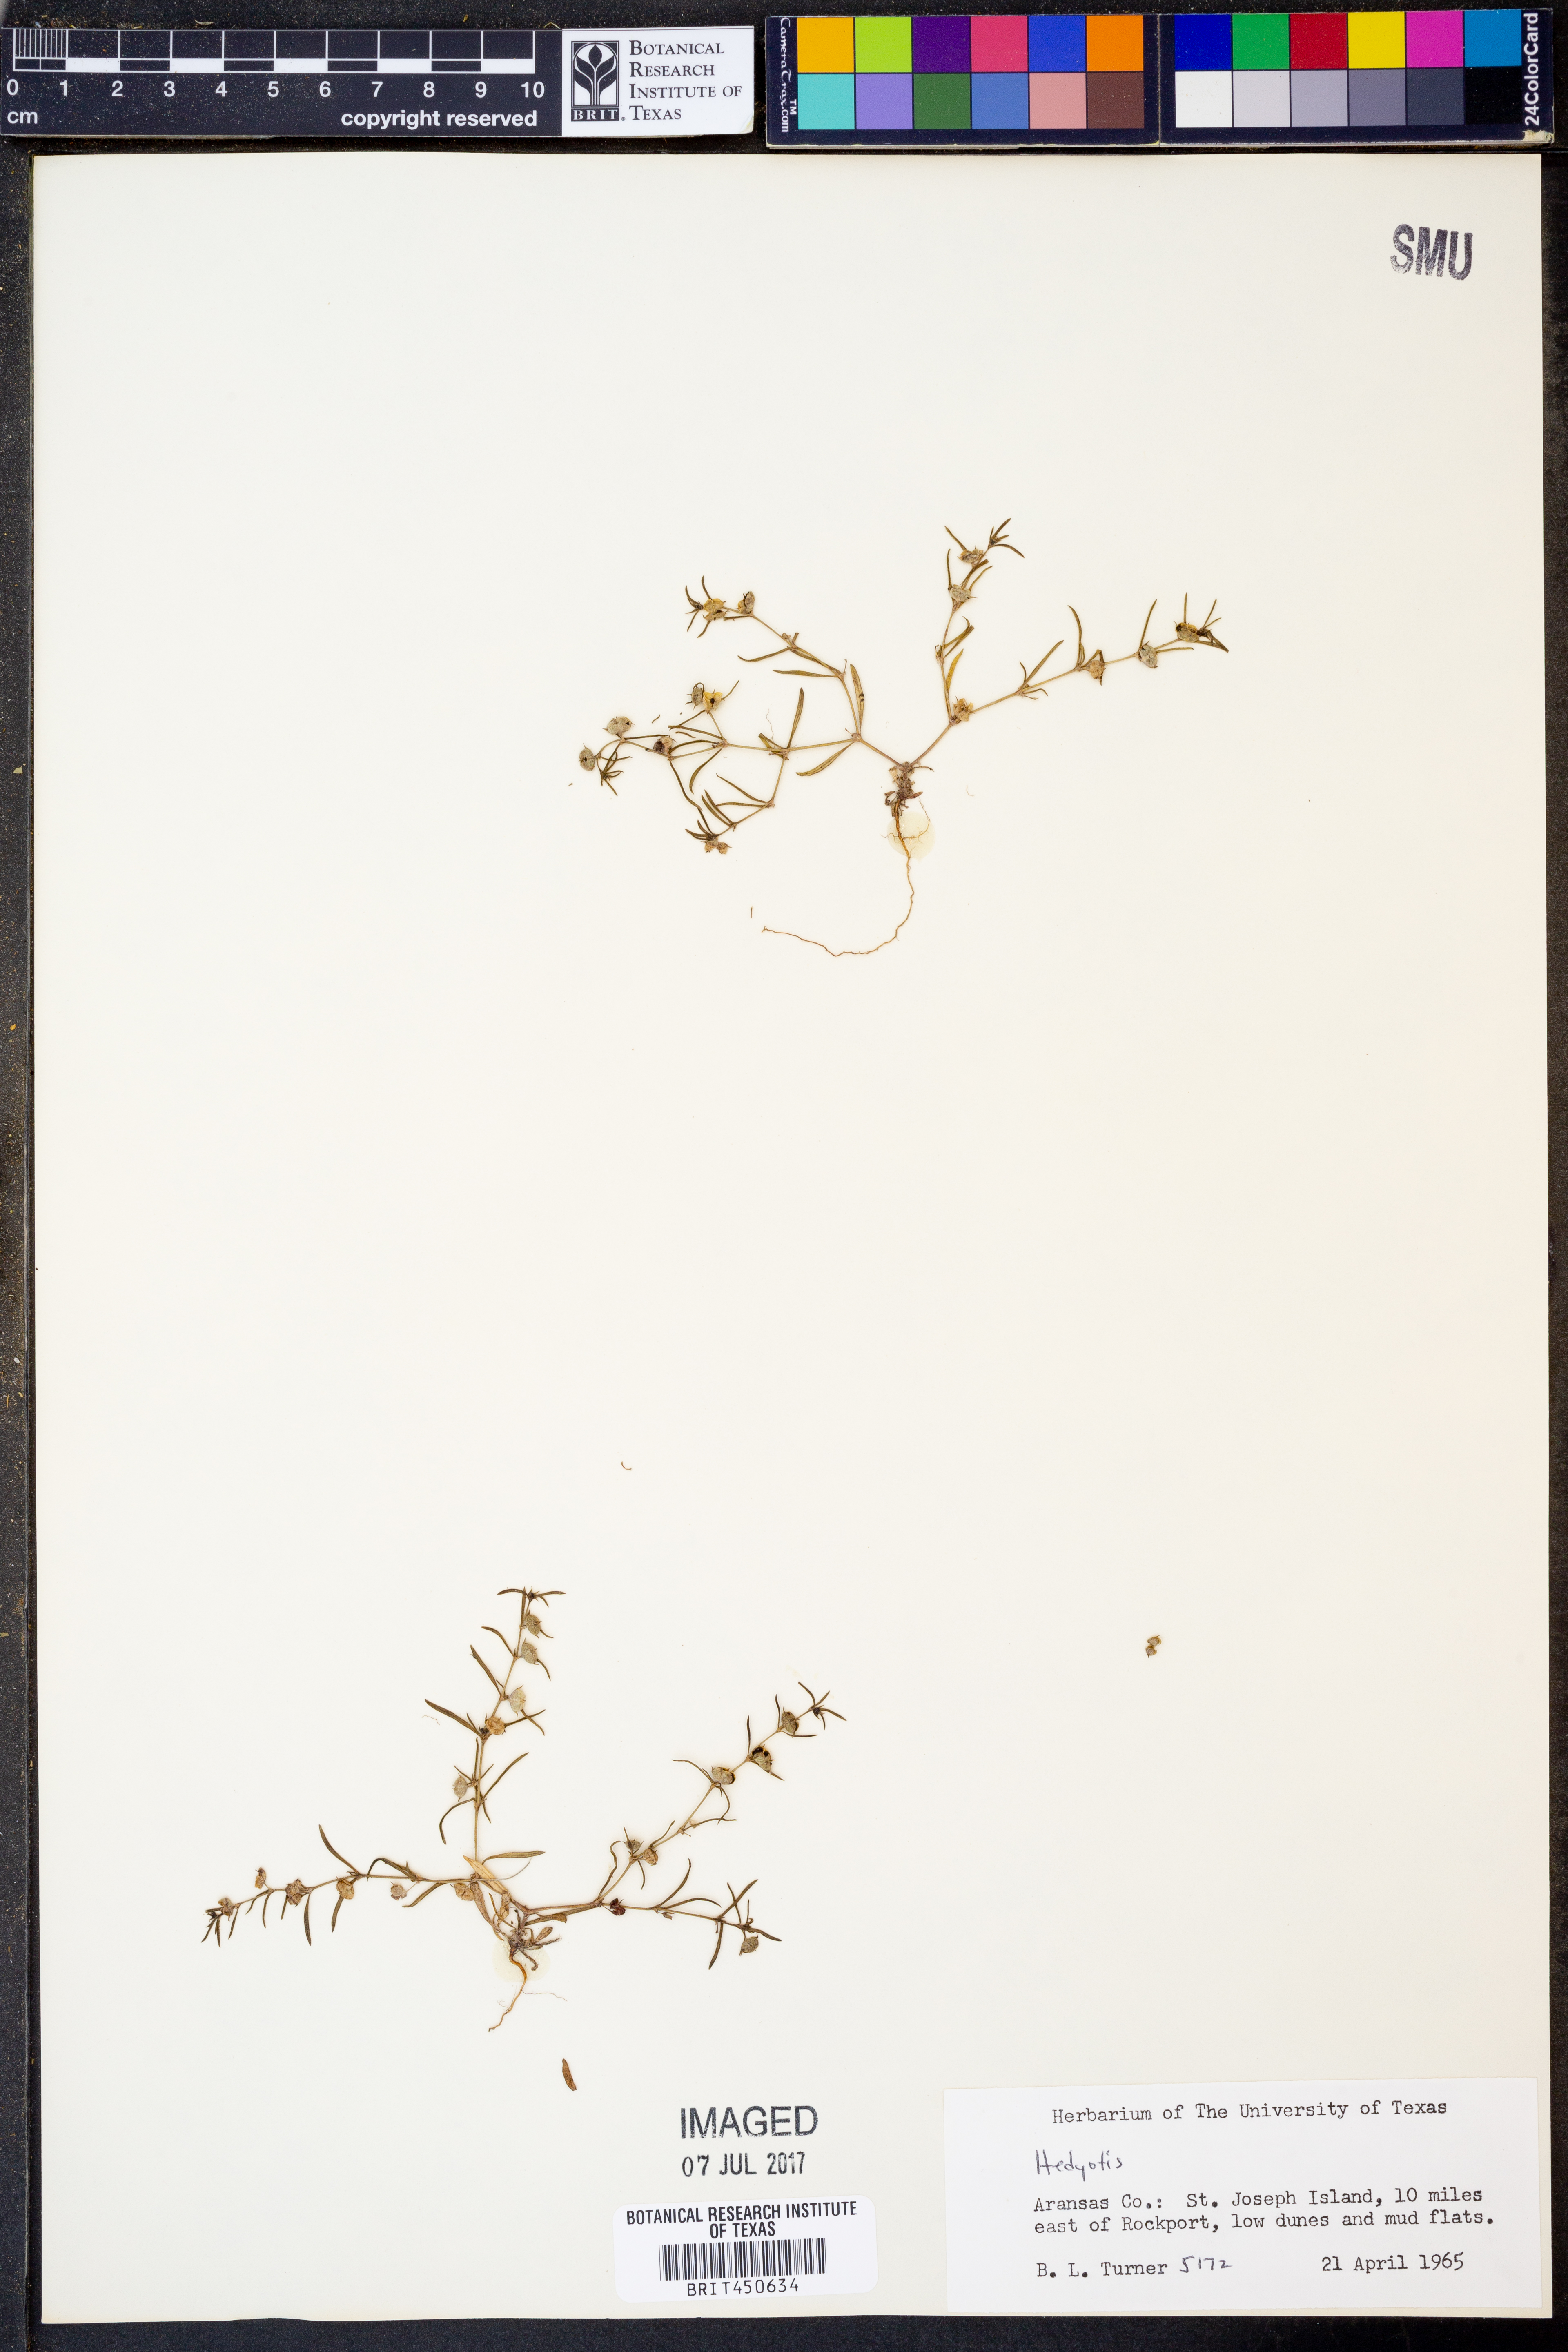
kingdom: Plantae
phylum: Tracheophyta
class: Magnoliopsida
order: Gentianales
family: Rubiaceae
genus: Hedyotis
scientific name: Hedyotis
